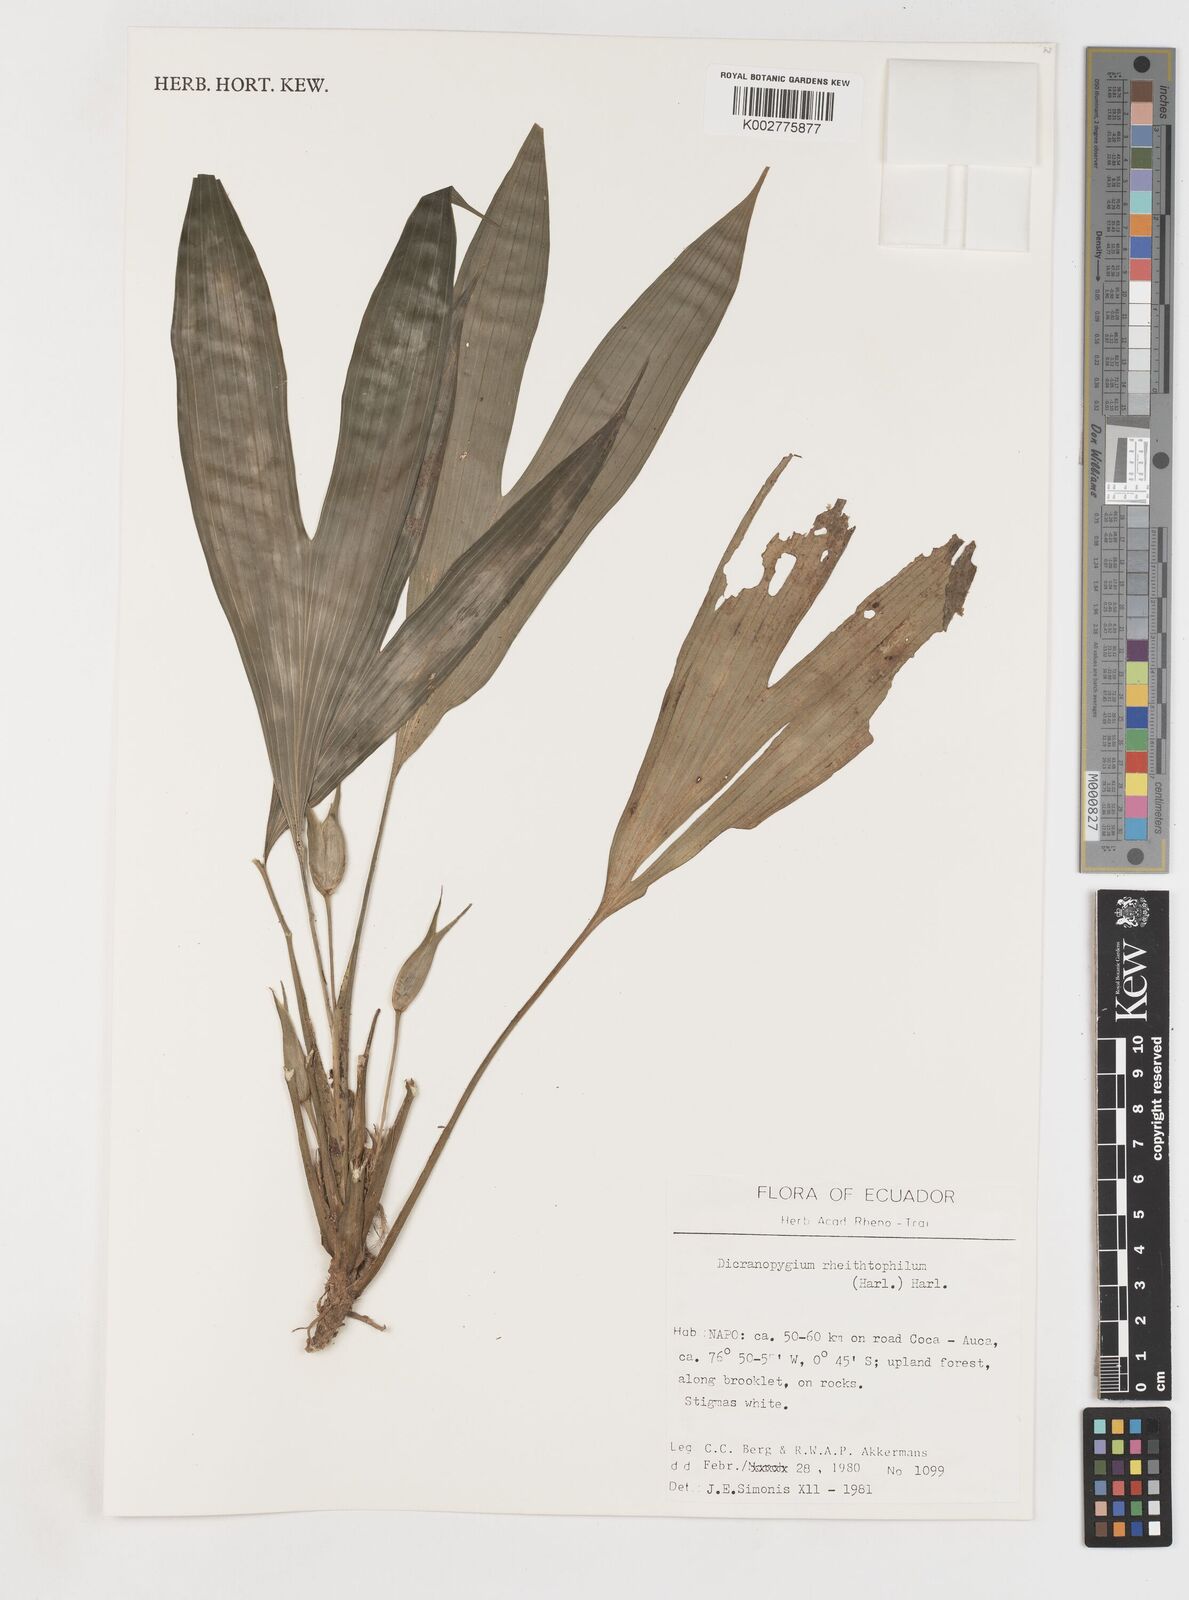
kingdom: Plantae
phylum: Tracheophyta
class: Liliopsida
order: Pandanales
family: Cyclanthaceae
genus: Dicranopygium
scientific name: Dicranopygium rheithrophilum
